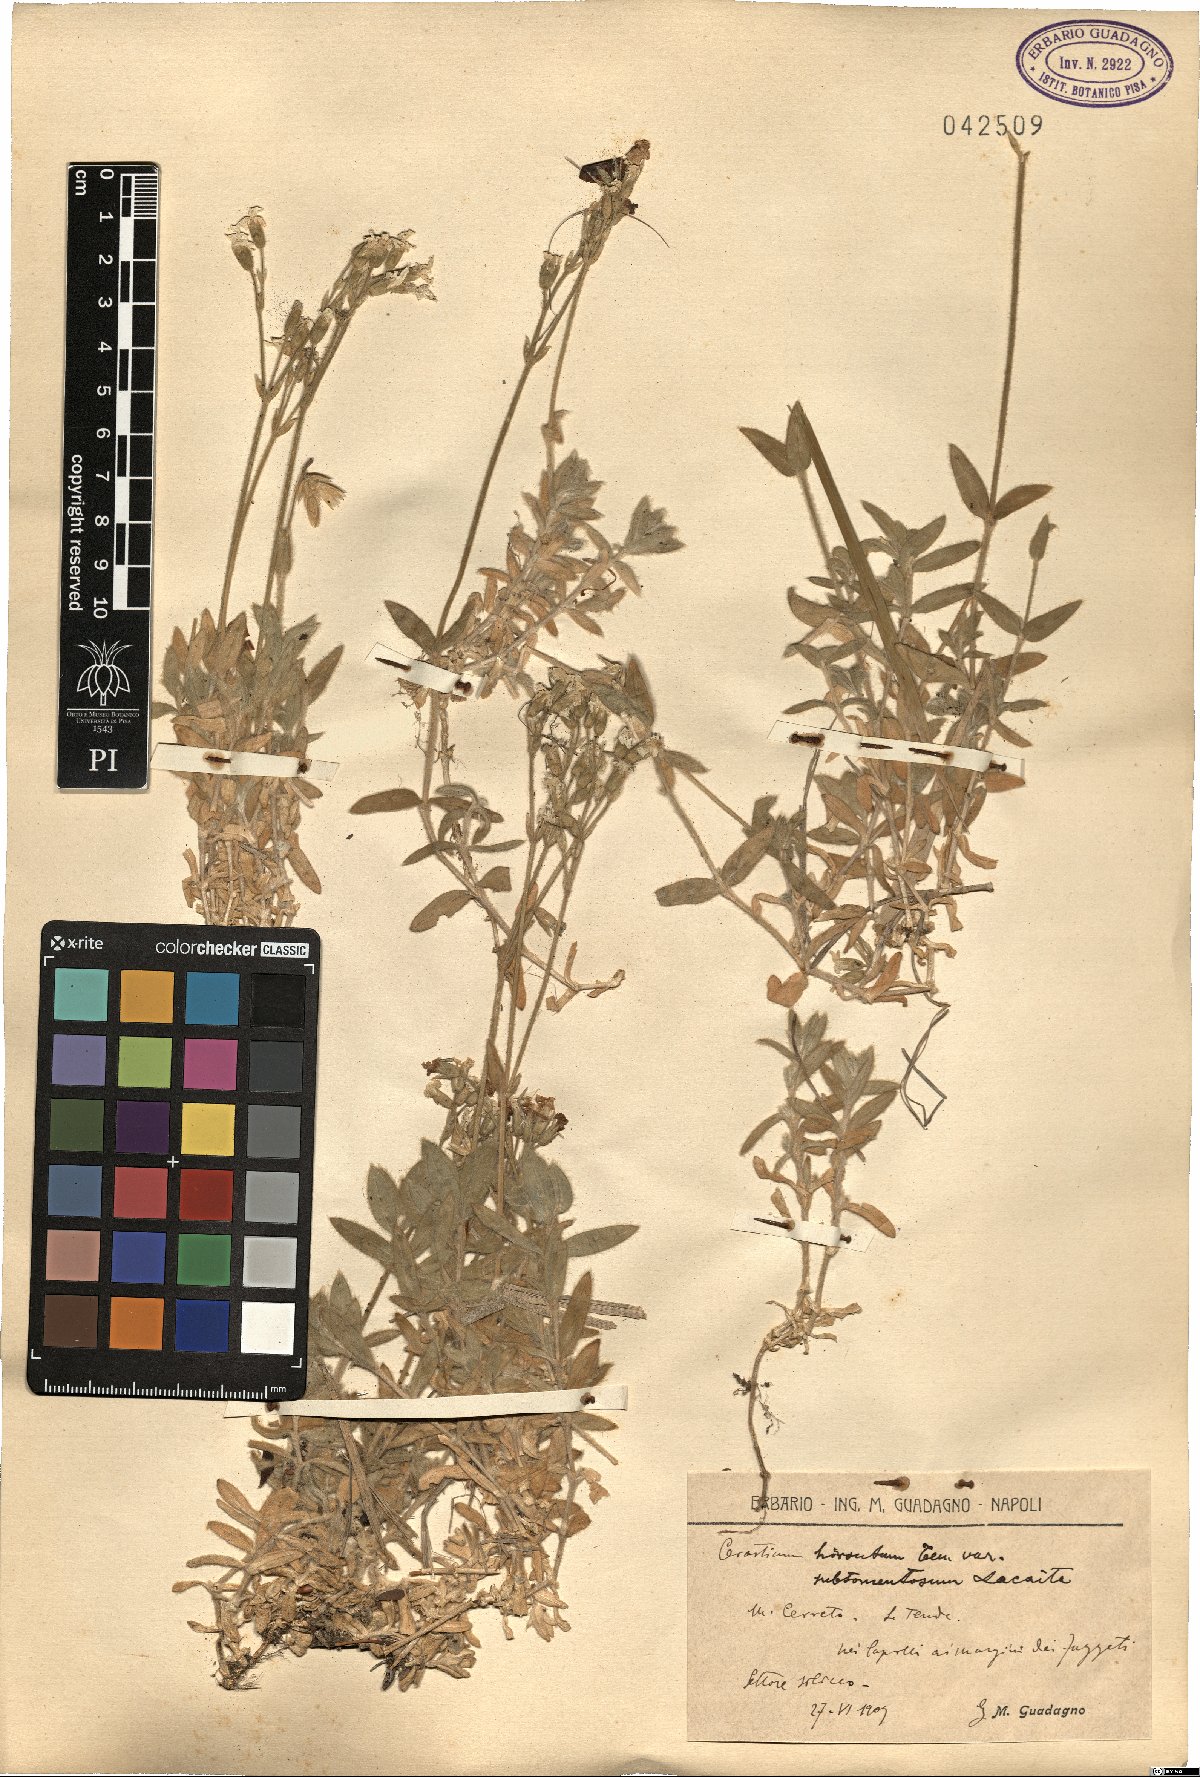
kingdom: Plantae
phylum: Tracheophyta
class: Magnoliopsida
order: Caryophyllales
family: Caryophyllaceae
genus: Cerastium
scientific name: Cerastium
